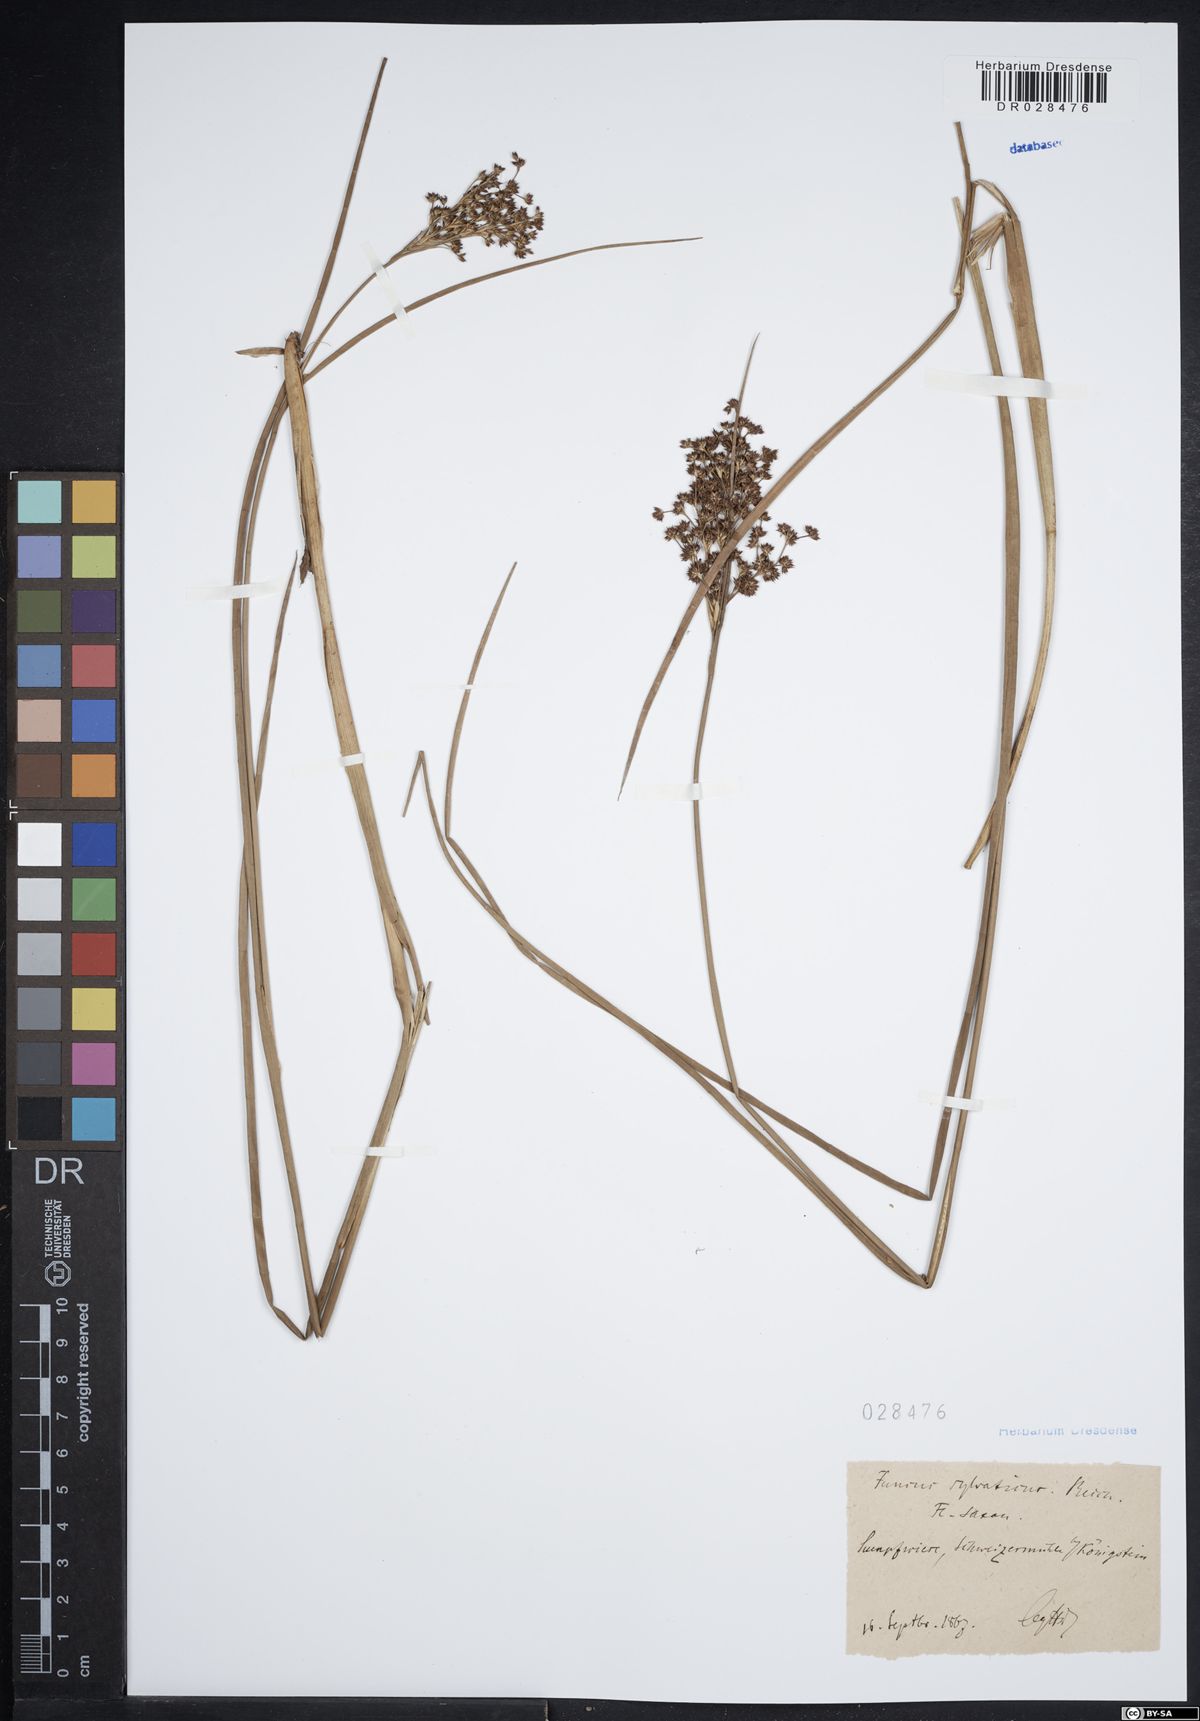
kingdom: Plantae
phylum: Tracheophyta
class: Liliopsida
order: Poales
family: Juncaceae
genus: Juncus
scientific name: Juncus acutiflorus
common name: Sharp-flowered rush
